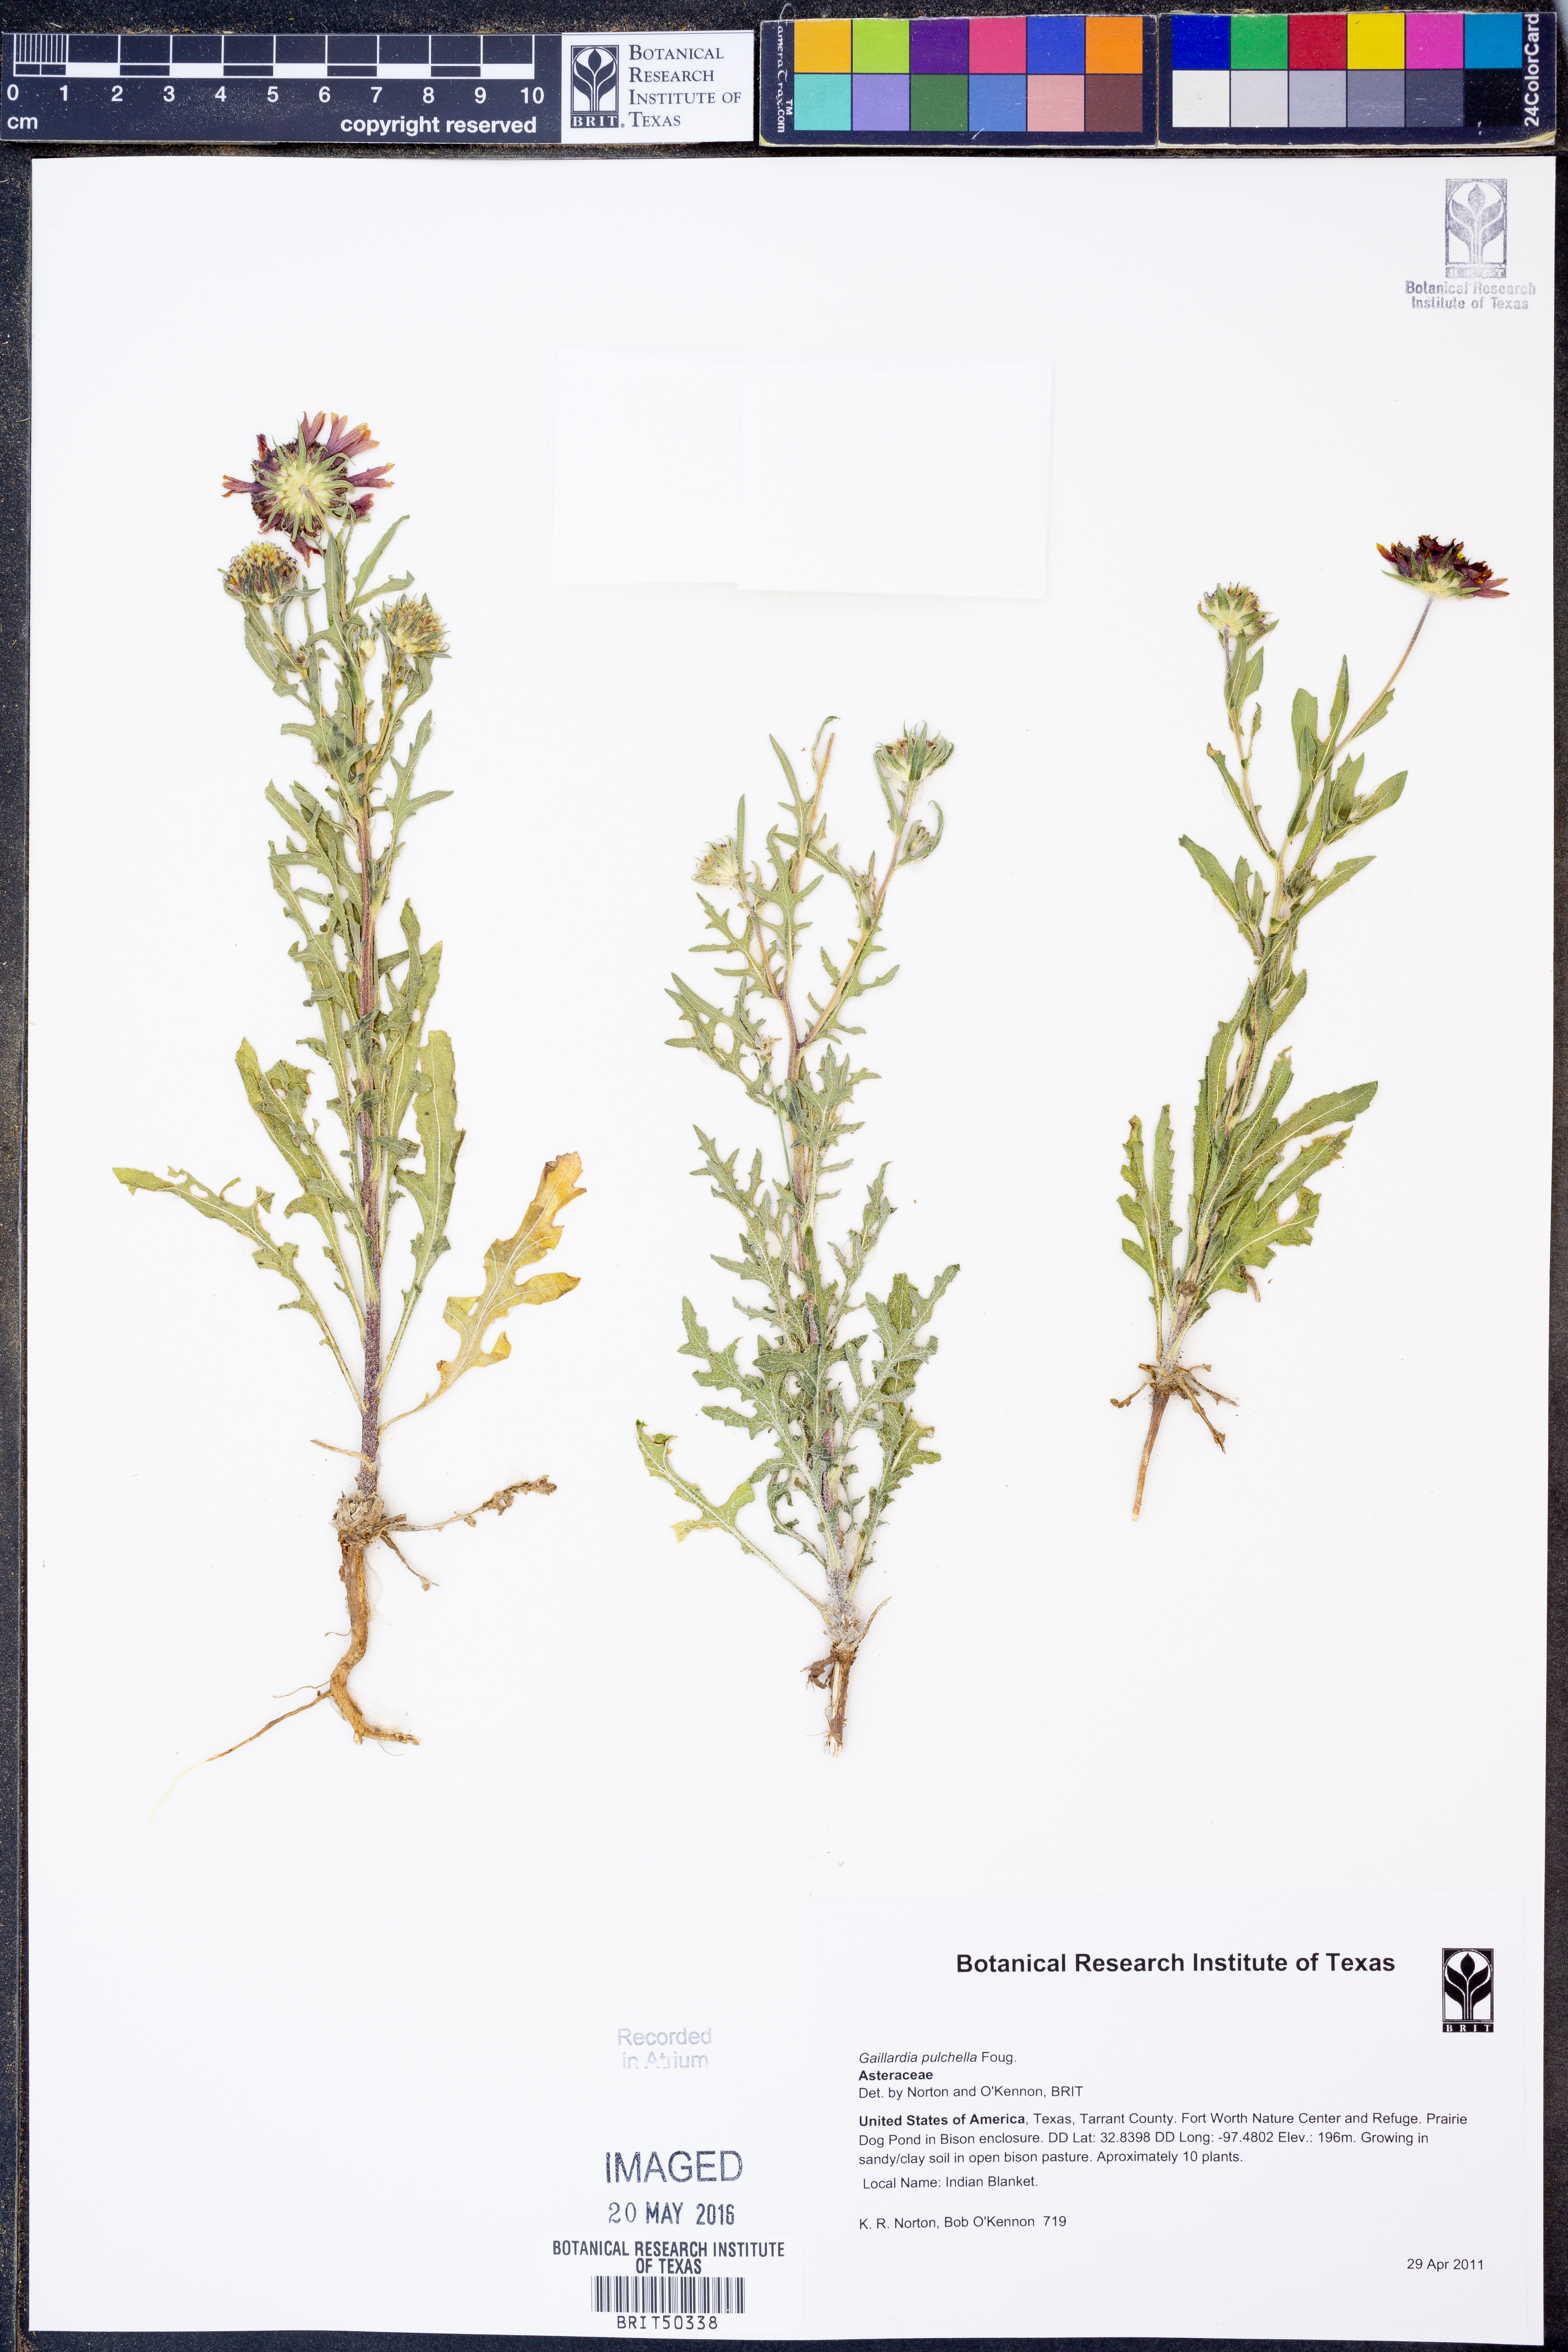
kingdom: Plantae
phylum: Tracheophyta
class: Magnoliopsida
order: Asterales
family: Asteraceae
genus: Gaillardia
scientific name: Gaillardia pulchella
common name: Firewheel
